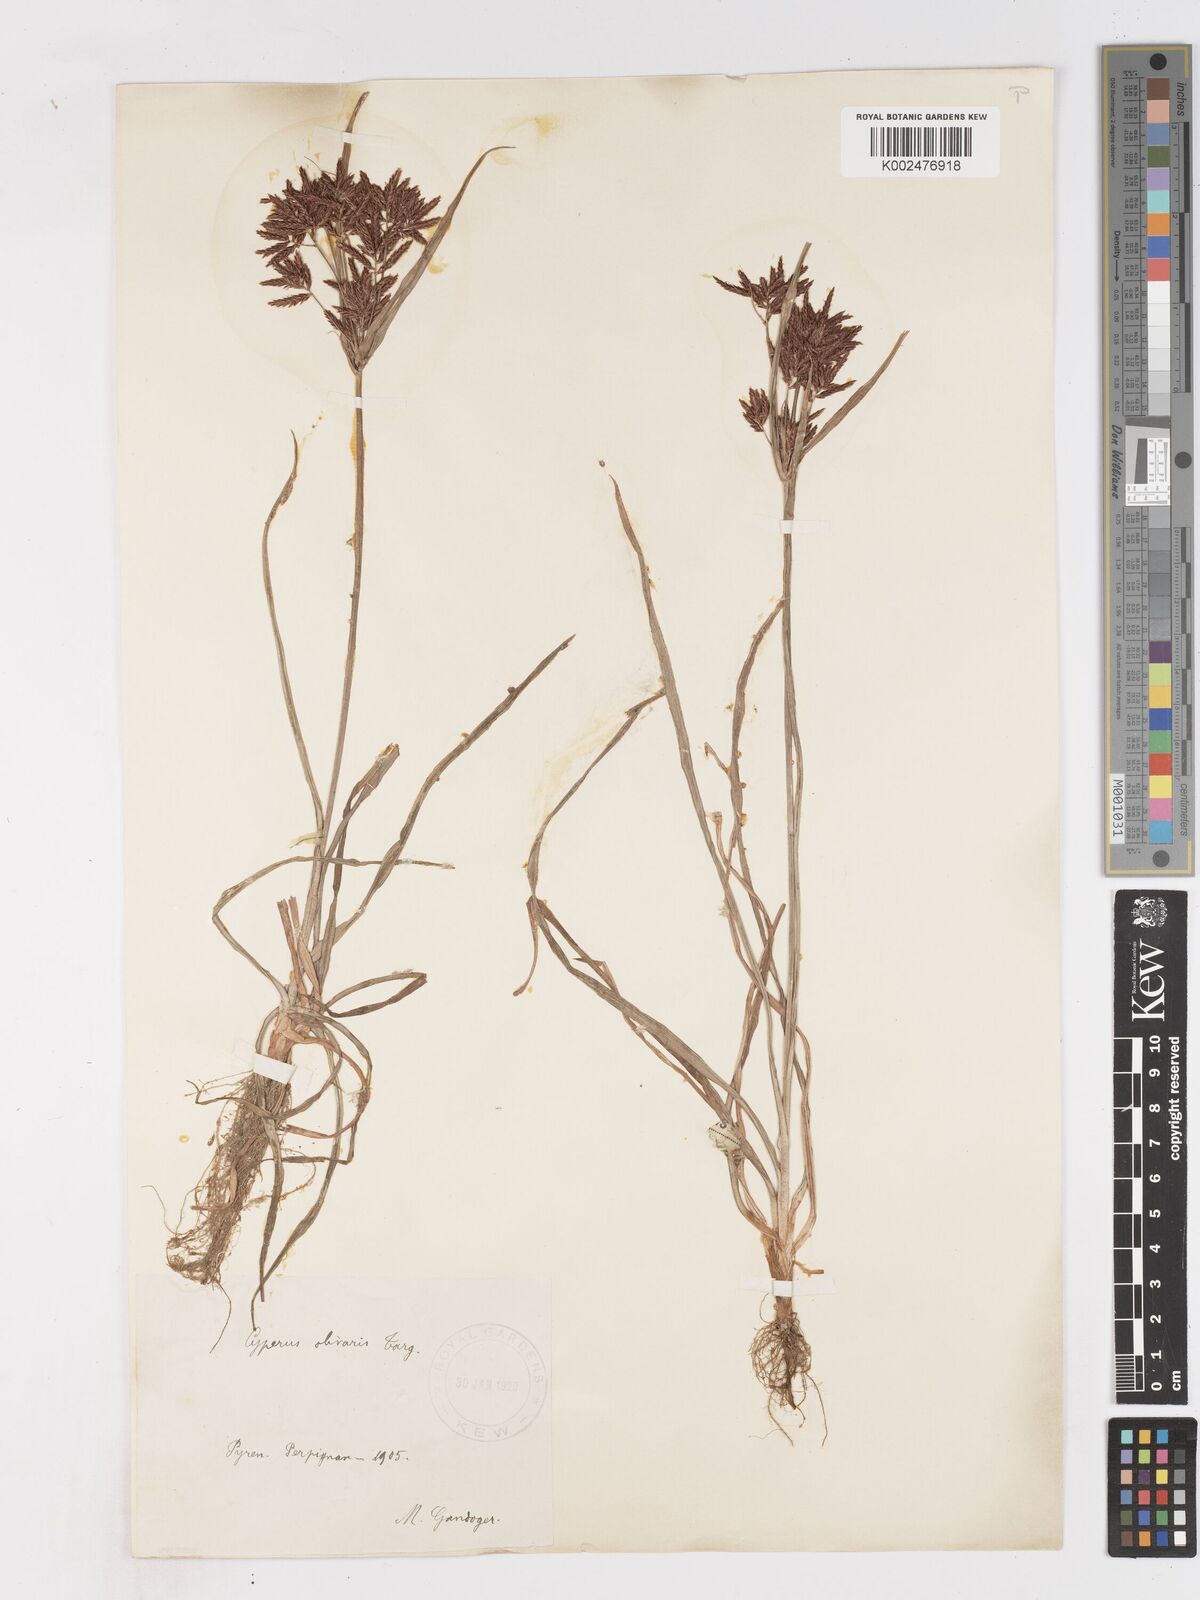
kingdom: Plantae
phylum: Tracheophyta
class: Liliopsida
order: Poales
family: Cyperaceae
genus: Cyperus
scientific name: Cyperus rotundus
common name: Nutgrass
